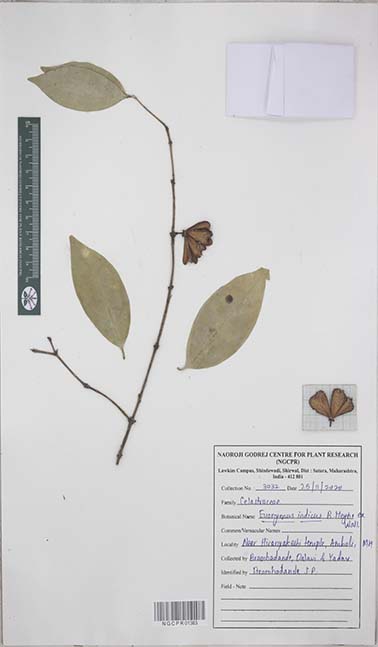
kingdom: Plantae
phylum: Tracheophyta
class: Magnoliopsida
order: Celastrales
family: Celastraceae
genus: Euonymus
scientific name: Euonymus indicus
